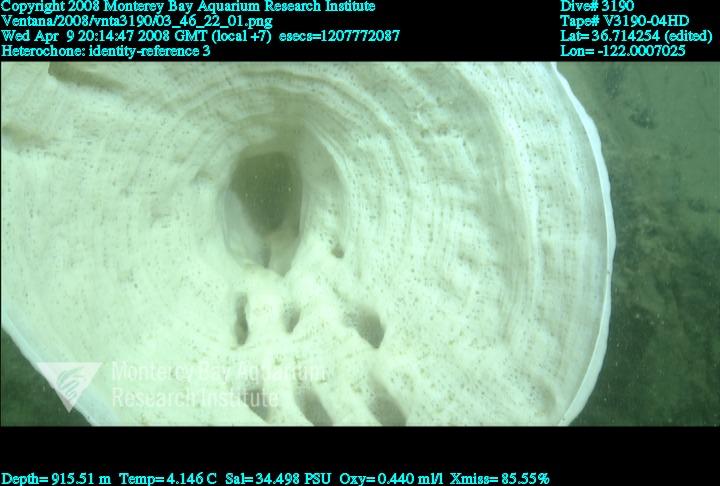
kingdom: Animalia
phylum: Porifera
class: Hexactinellida
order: Sceptrulophora
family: Aphrocallistidae
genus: Heterochone
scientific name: Heterochone
